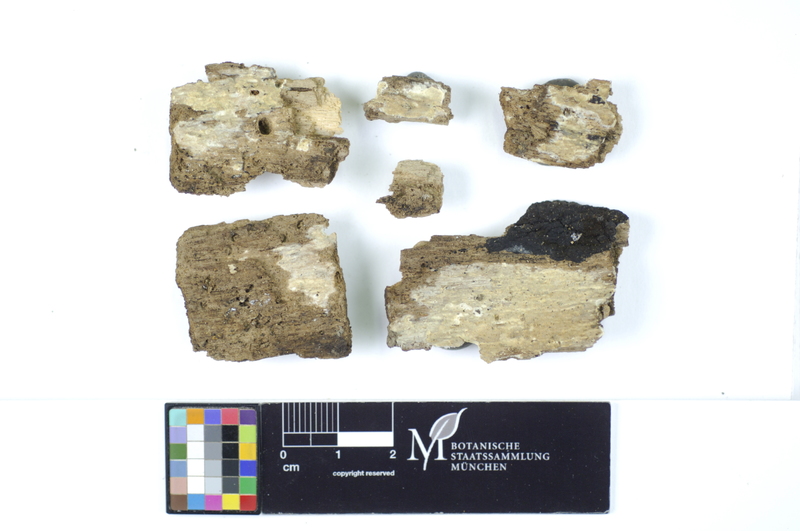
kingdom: Fungi
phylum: Basidiomycota
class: Agaricomycetes
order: Hymenochaetales
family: Rickenellaceae
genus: Peniophorella
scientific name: Peniophorella pubera
